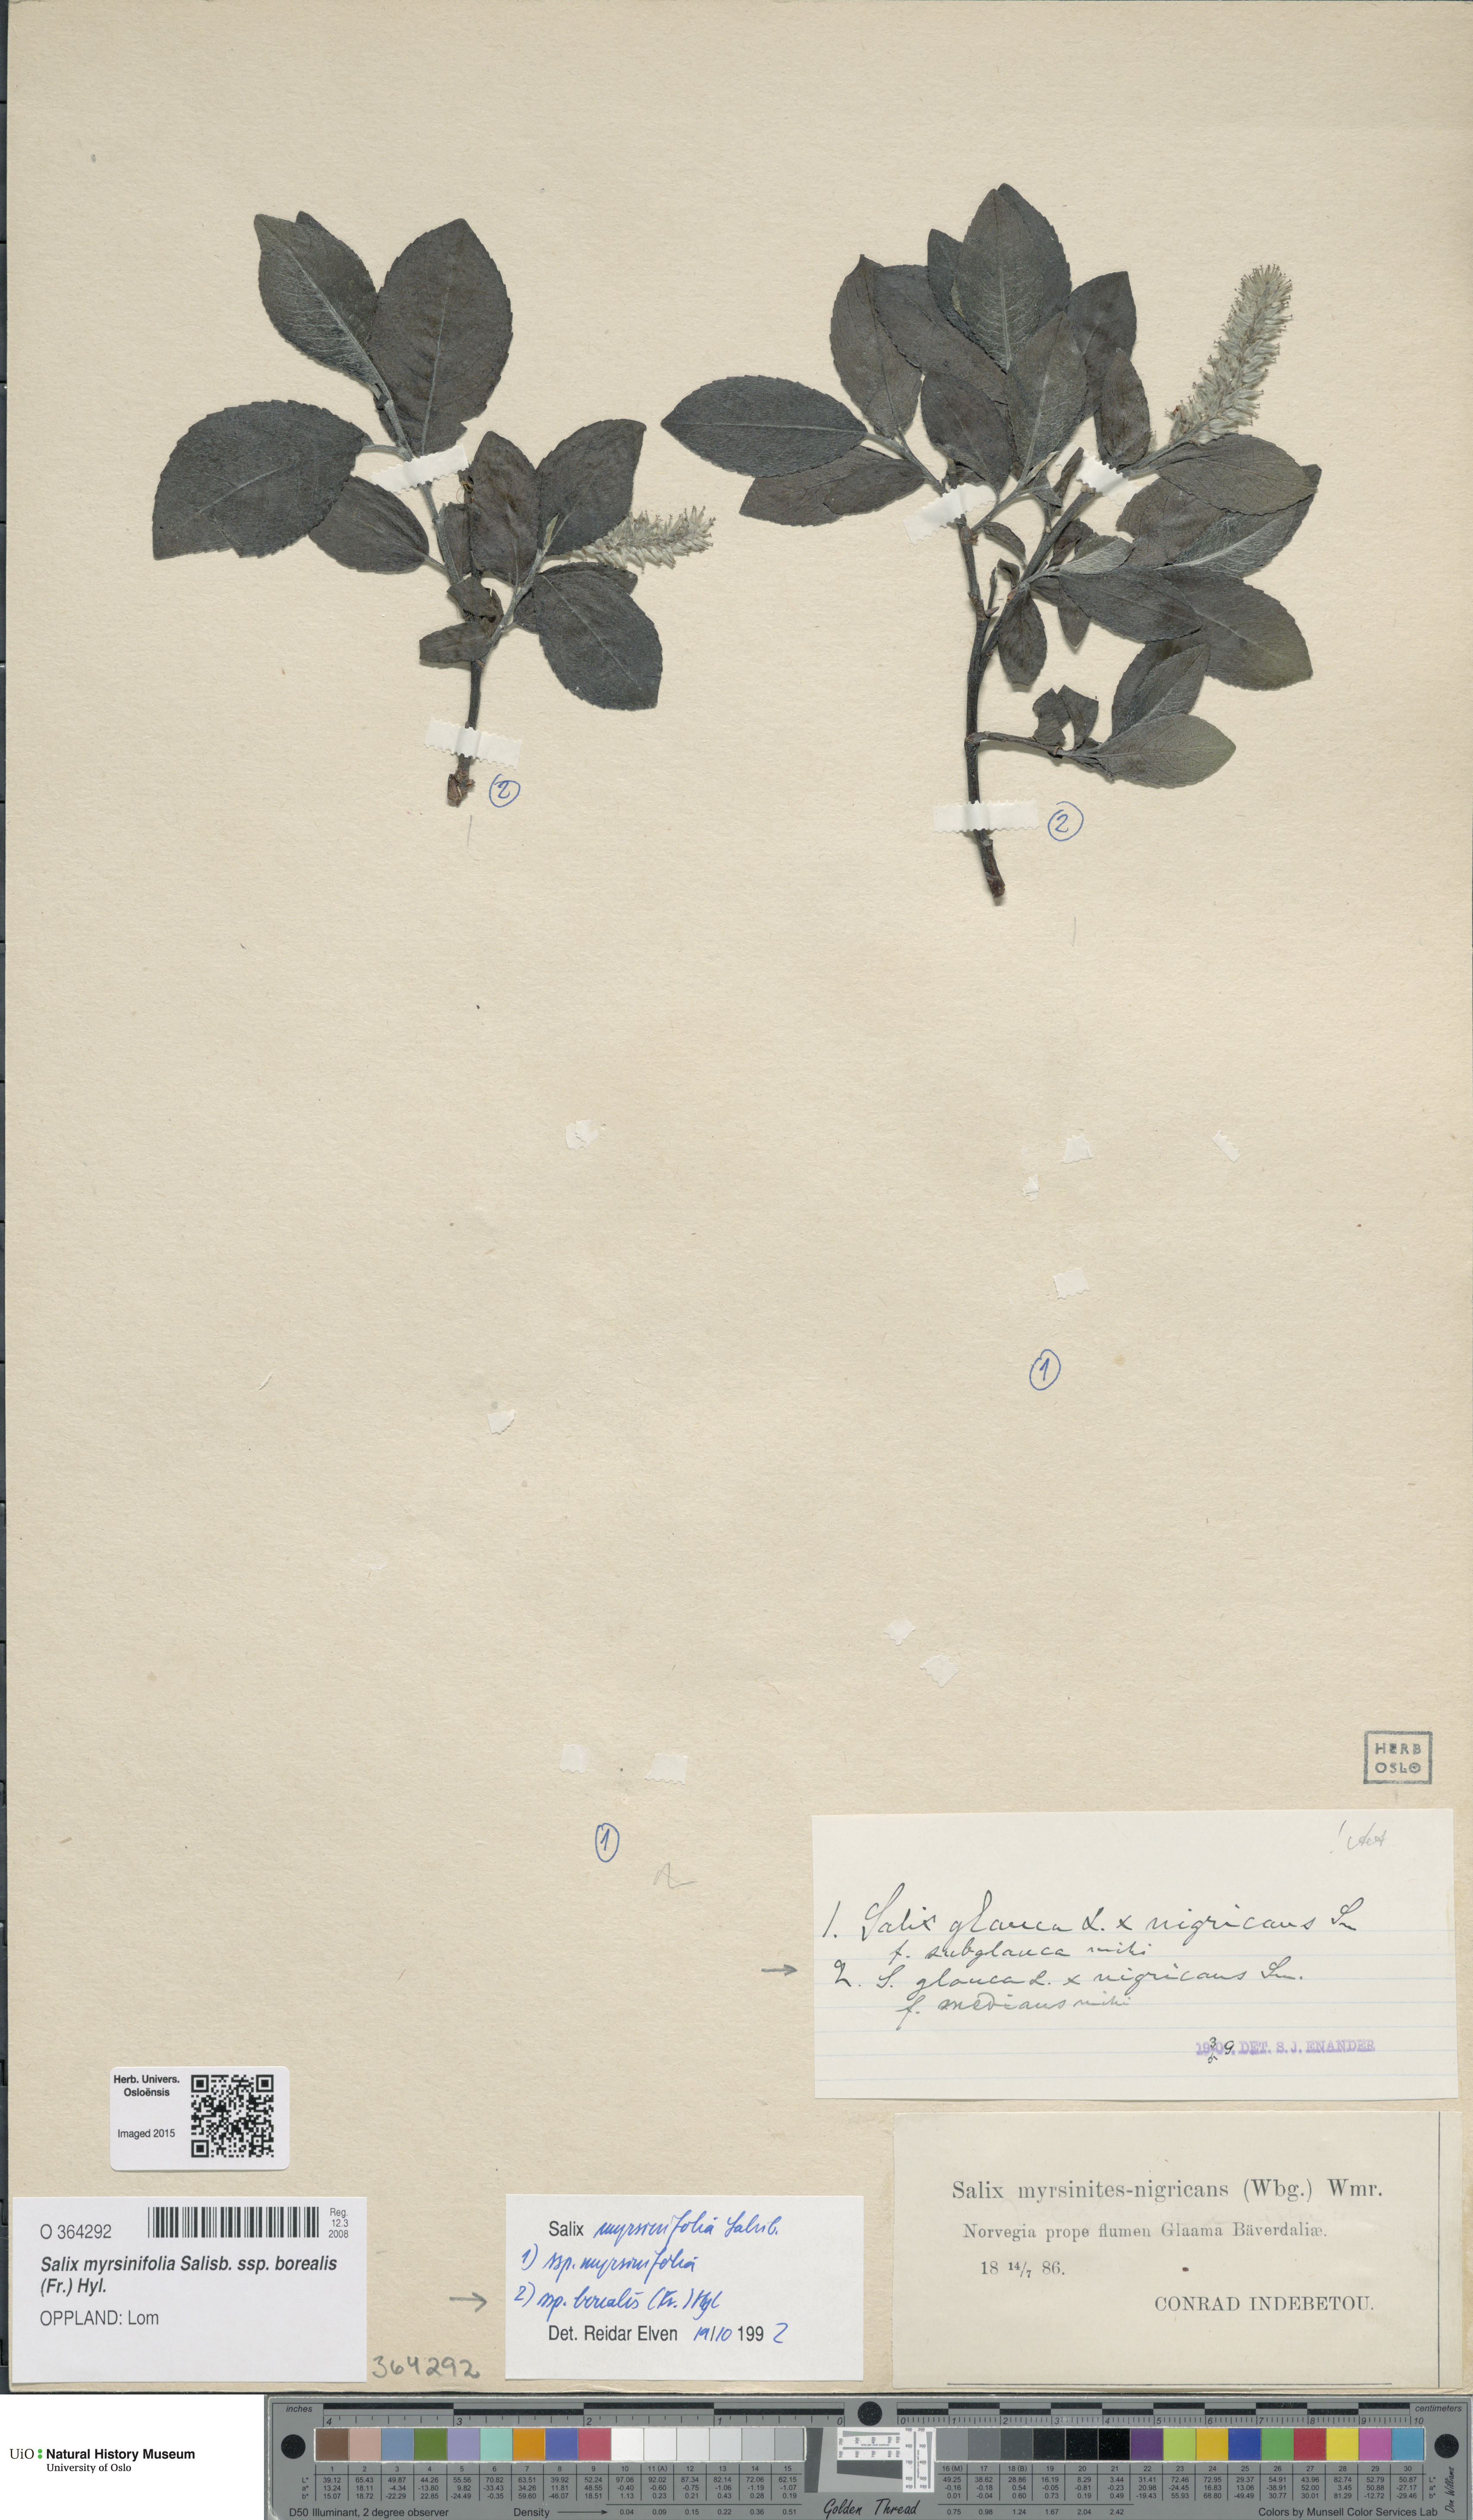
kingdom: Plantae
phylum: Tracheophyta
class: Magnoliopsida
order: Malpighiales
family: Salicaceae
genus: Salix
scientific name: Salix myrsinifolia
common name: Dark-leaved willow
